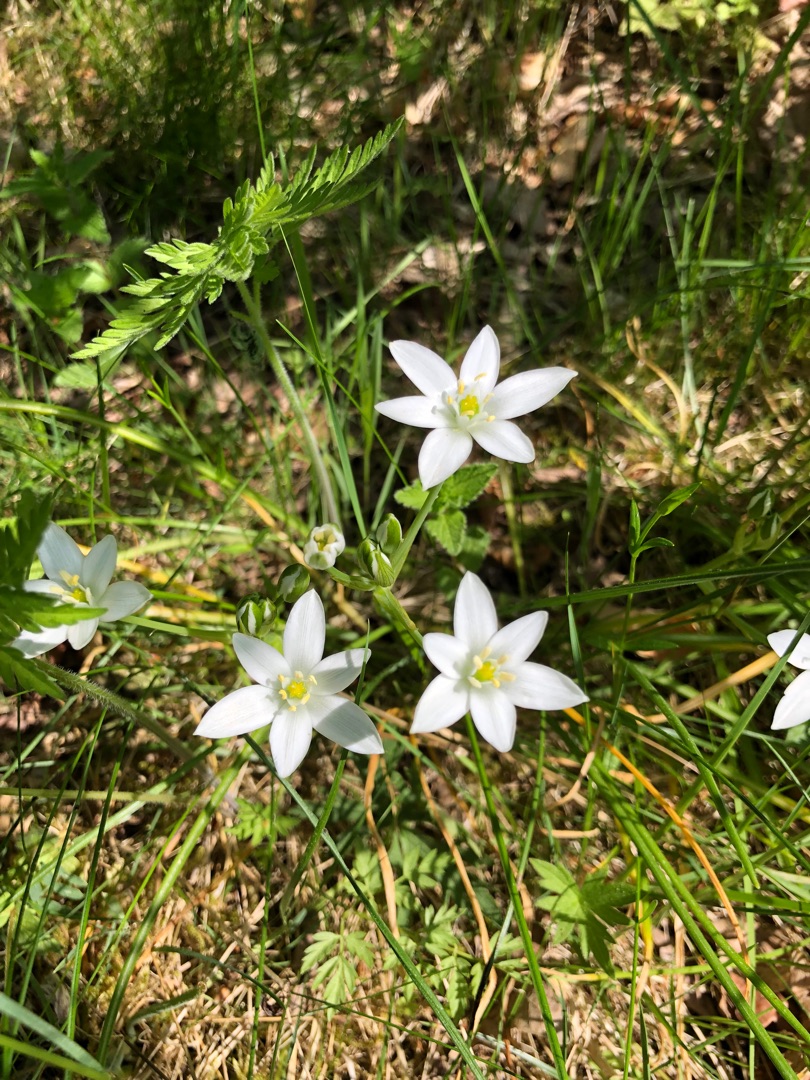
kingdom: Plantae
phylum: Tracheophyta
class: Liliopsida
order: Asparagales
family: Asparagaceae
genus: Ornithogalum
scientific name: Ornithogalum umbellatum
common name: Kost-fuglemælk
